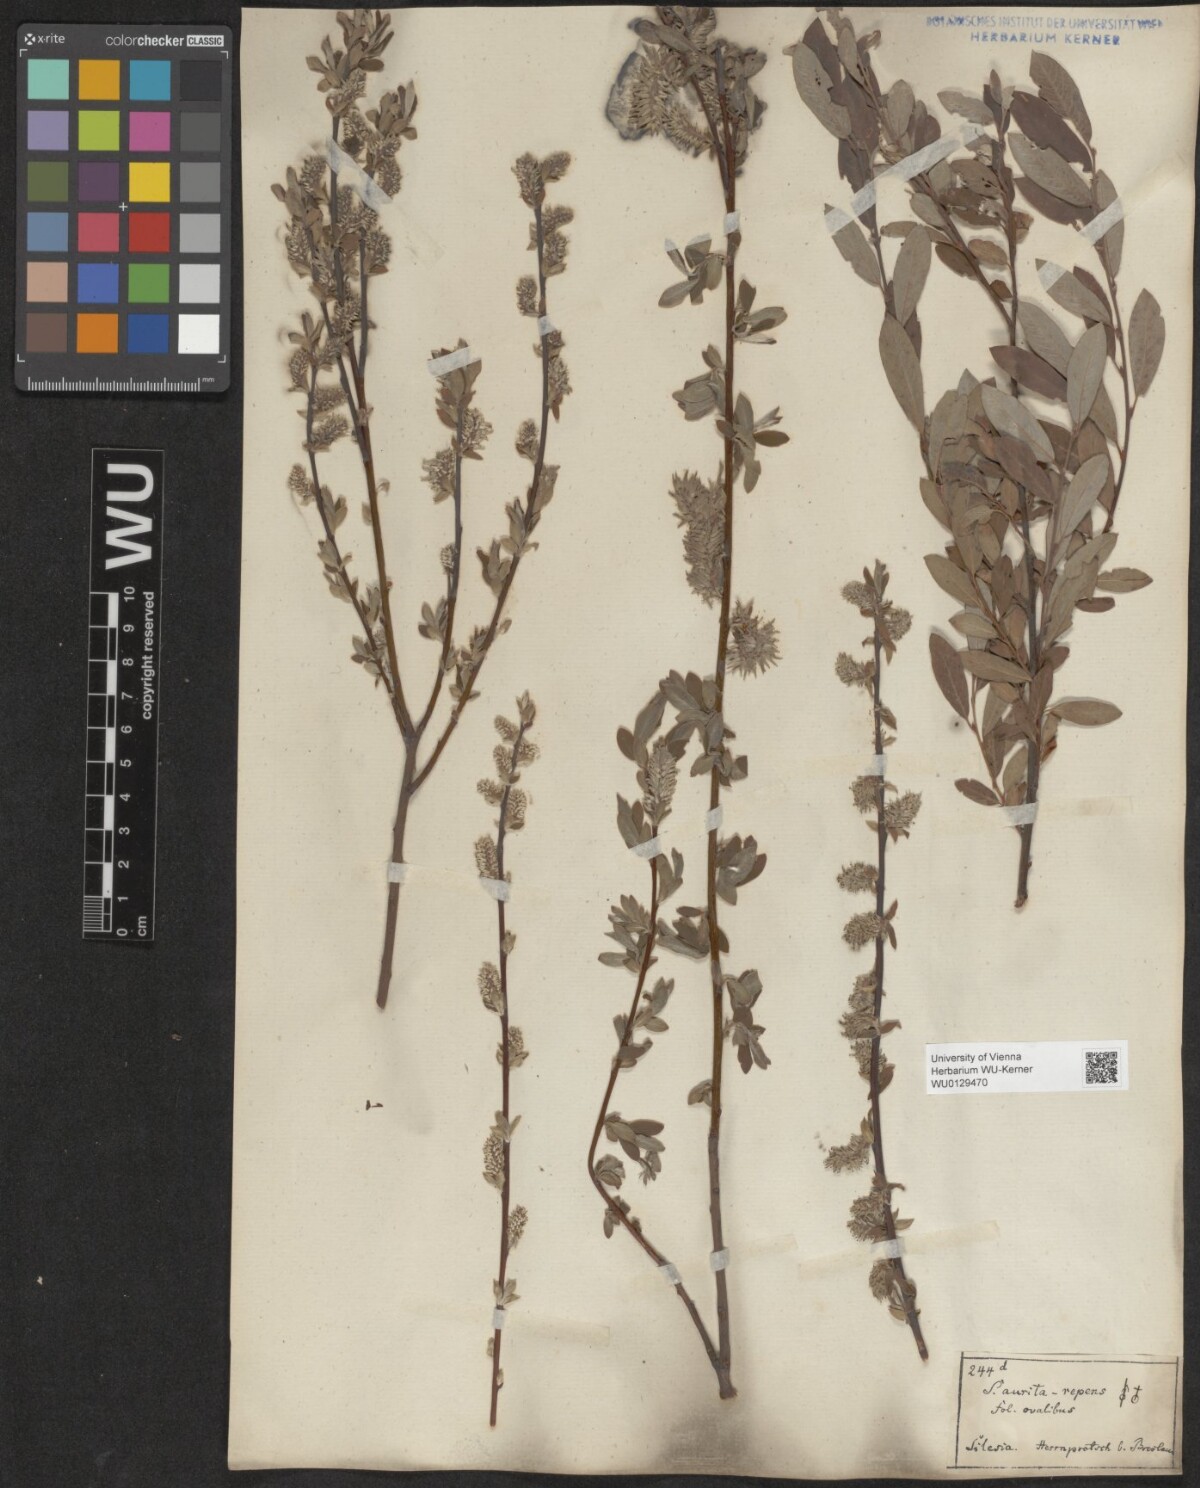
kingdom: Plantae
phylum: Tracheophyta
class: Magnoliopsida
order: Malpighiales
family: Salicaceae
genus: Salix
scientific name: Salix
